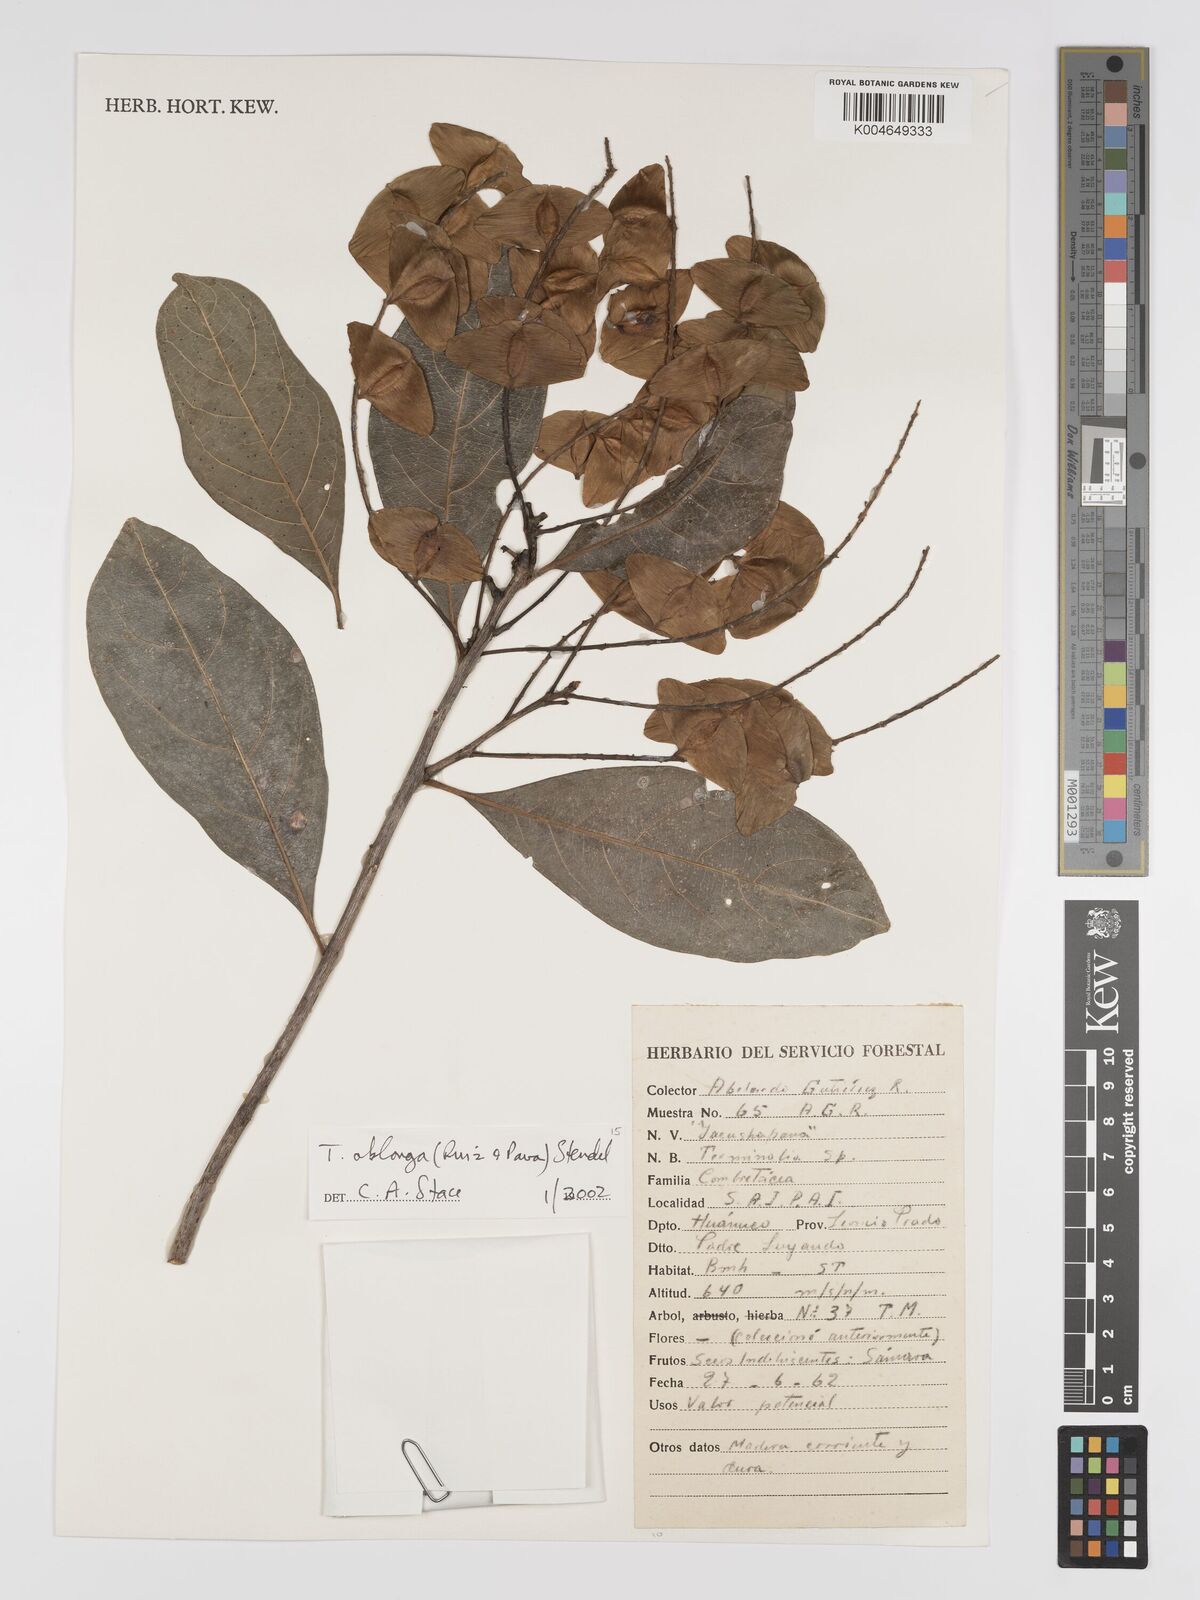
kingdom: Plantae
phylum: Tracheophyta
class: Magnoliopsida
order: Myrtales
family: Combretaceae
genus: Terminalia
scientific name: Terminalia oblonga
